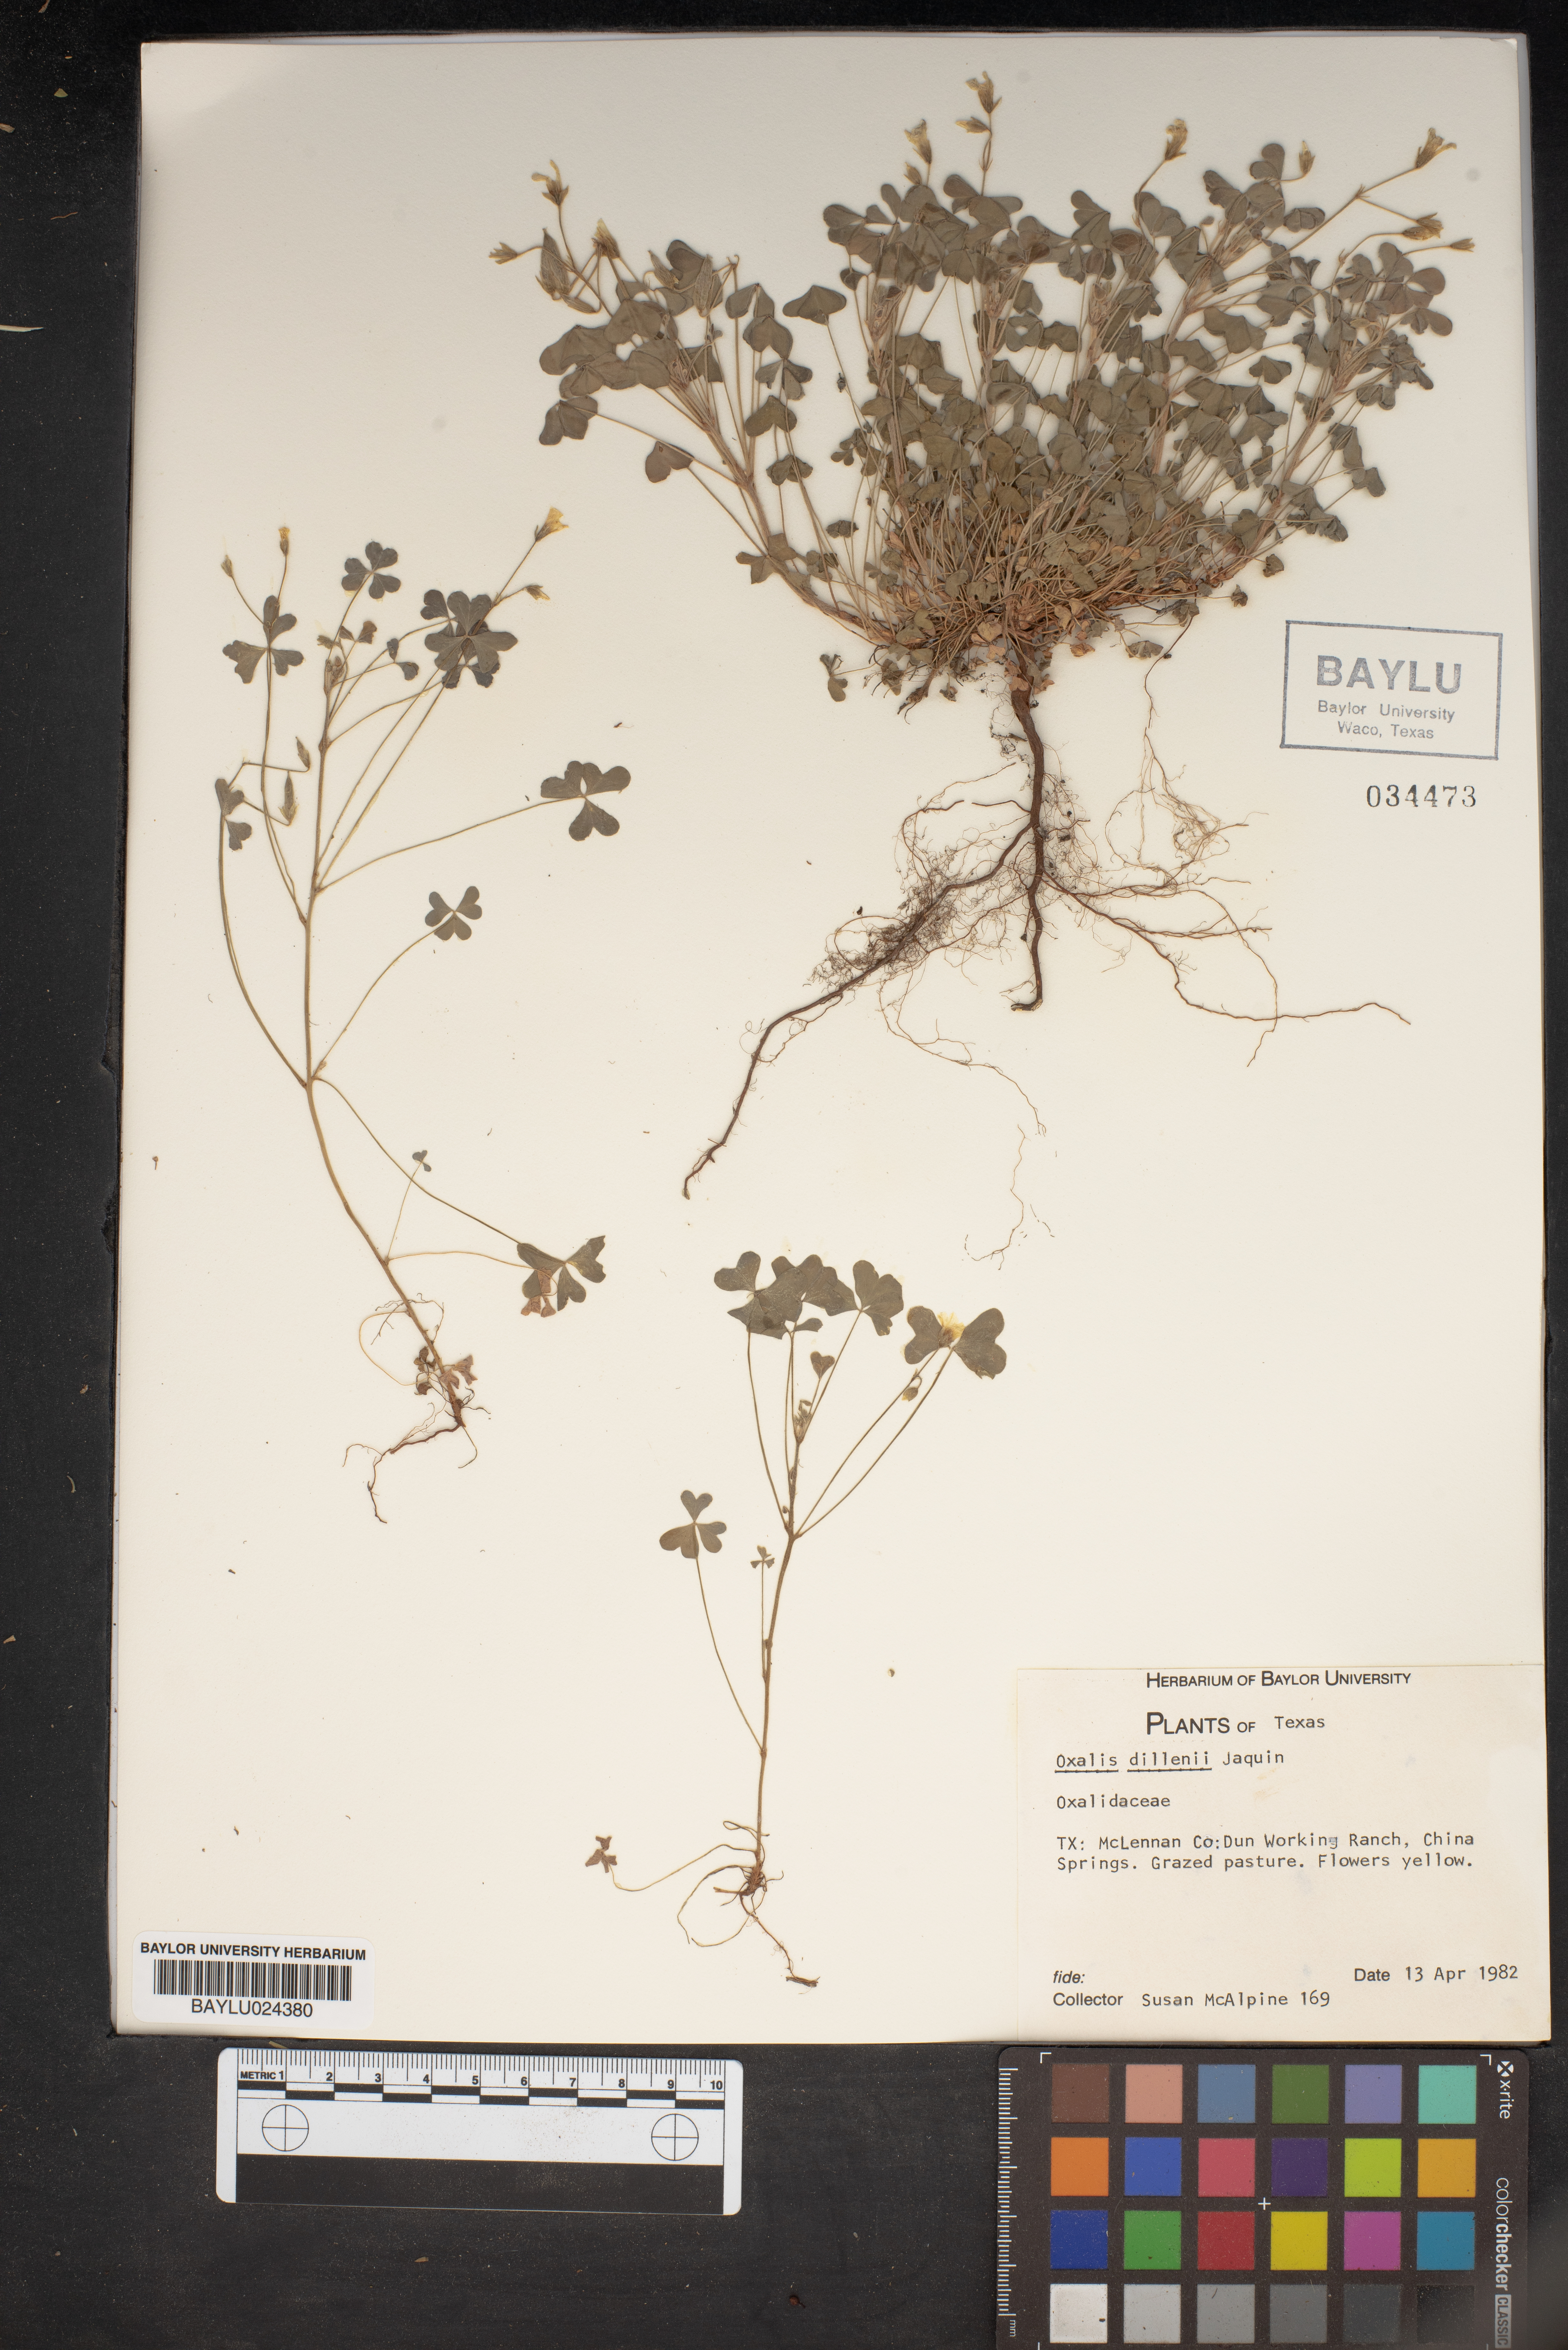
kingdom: Plantae
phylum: Tracheophyta
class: Magnoliopsida
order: Oxalidales
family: Oxalidaceae
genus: Oxalis
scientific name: Oxalis dillenii
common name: Sussex yellow-sorrel
